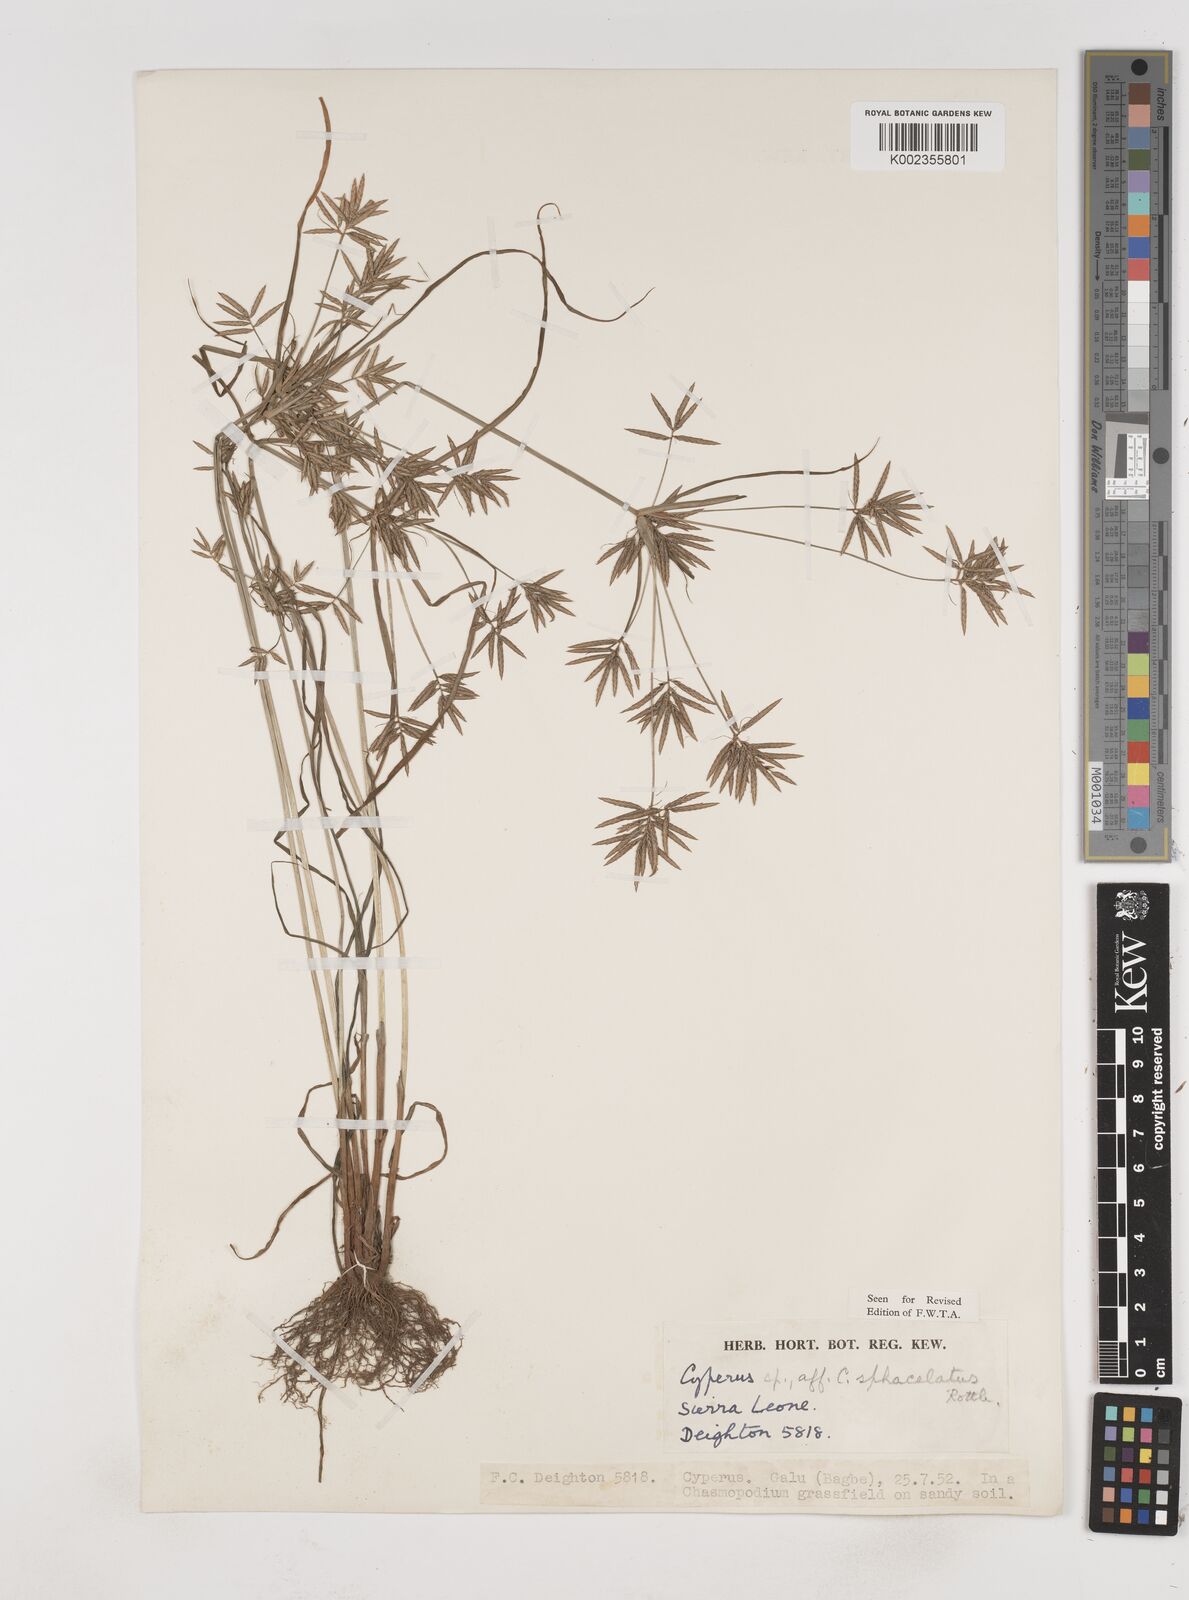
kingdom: Plantae
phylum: Tracheophyta
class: Liliopsida
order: Poales
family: Cyperaceae
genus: Cyperus
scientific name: Cyperus sphacelatus
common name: Roadside flatsedge
